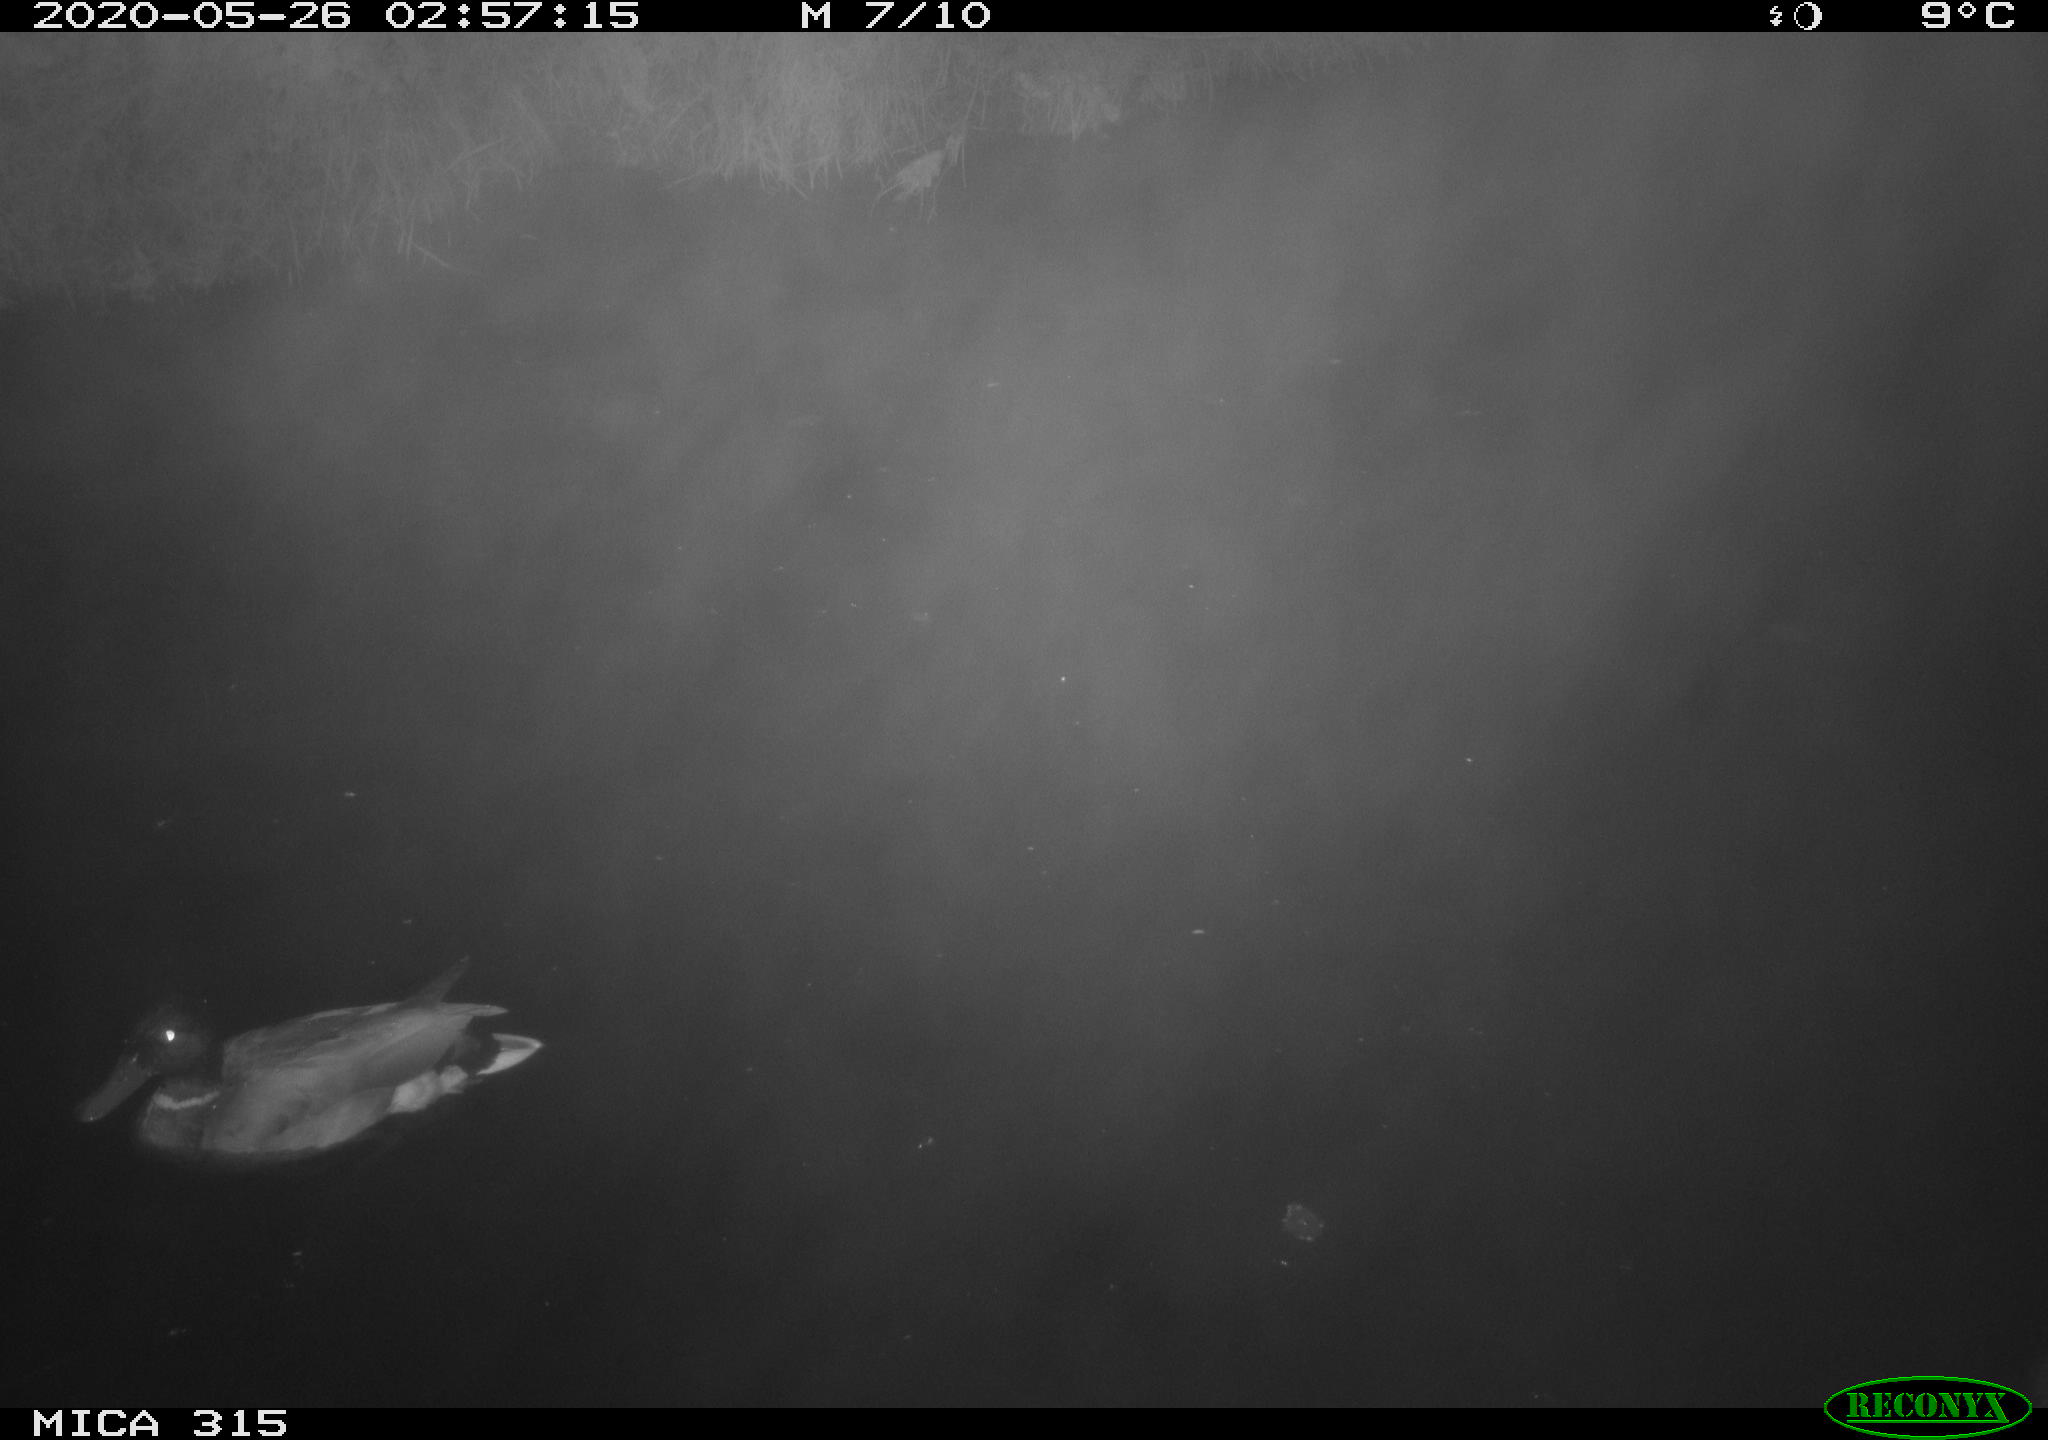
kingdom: Animalia
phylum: Chordata
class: Aves
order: Anseriformes
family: Anatidae
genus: Anas
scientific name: Anas platyrhynchos
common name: Mallard
